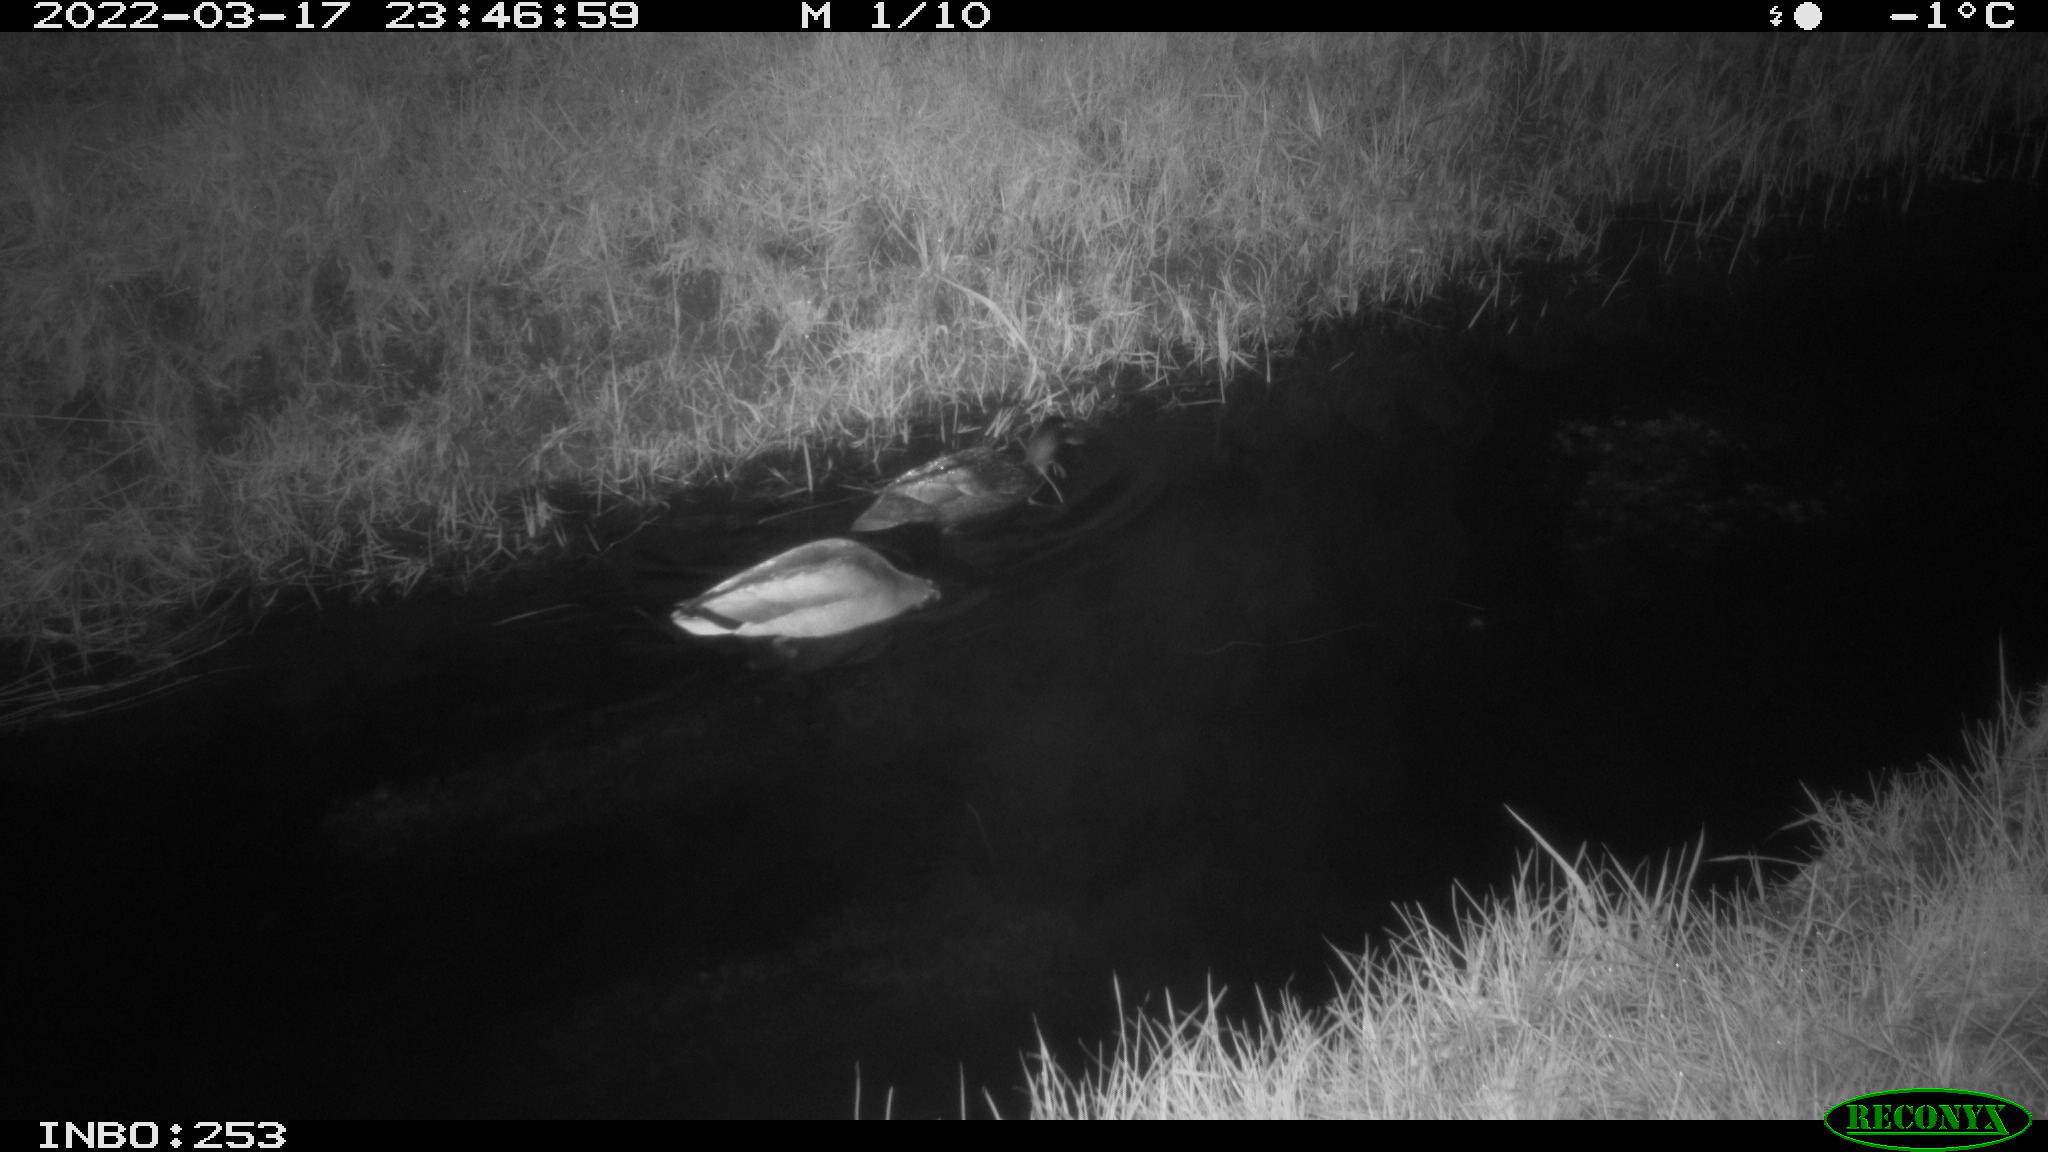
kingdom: Animalia
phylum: Chordata
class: Aves
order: Anseriformes
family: Anatidae
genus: Anas
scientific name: Anas platyrhynchos
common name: Mallard
